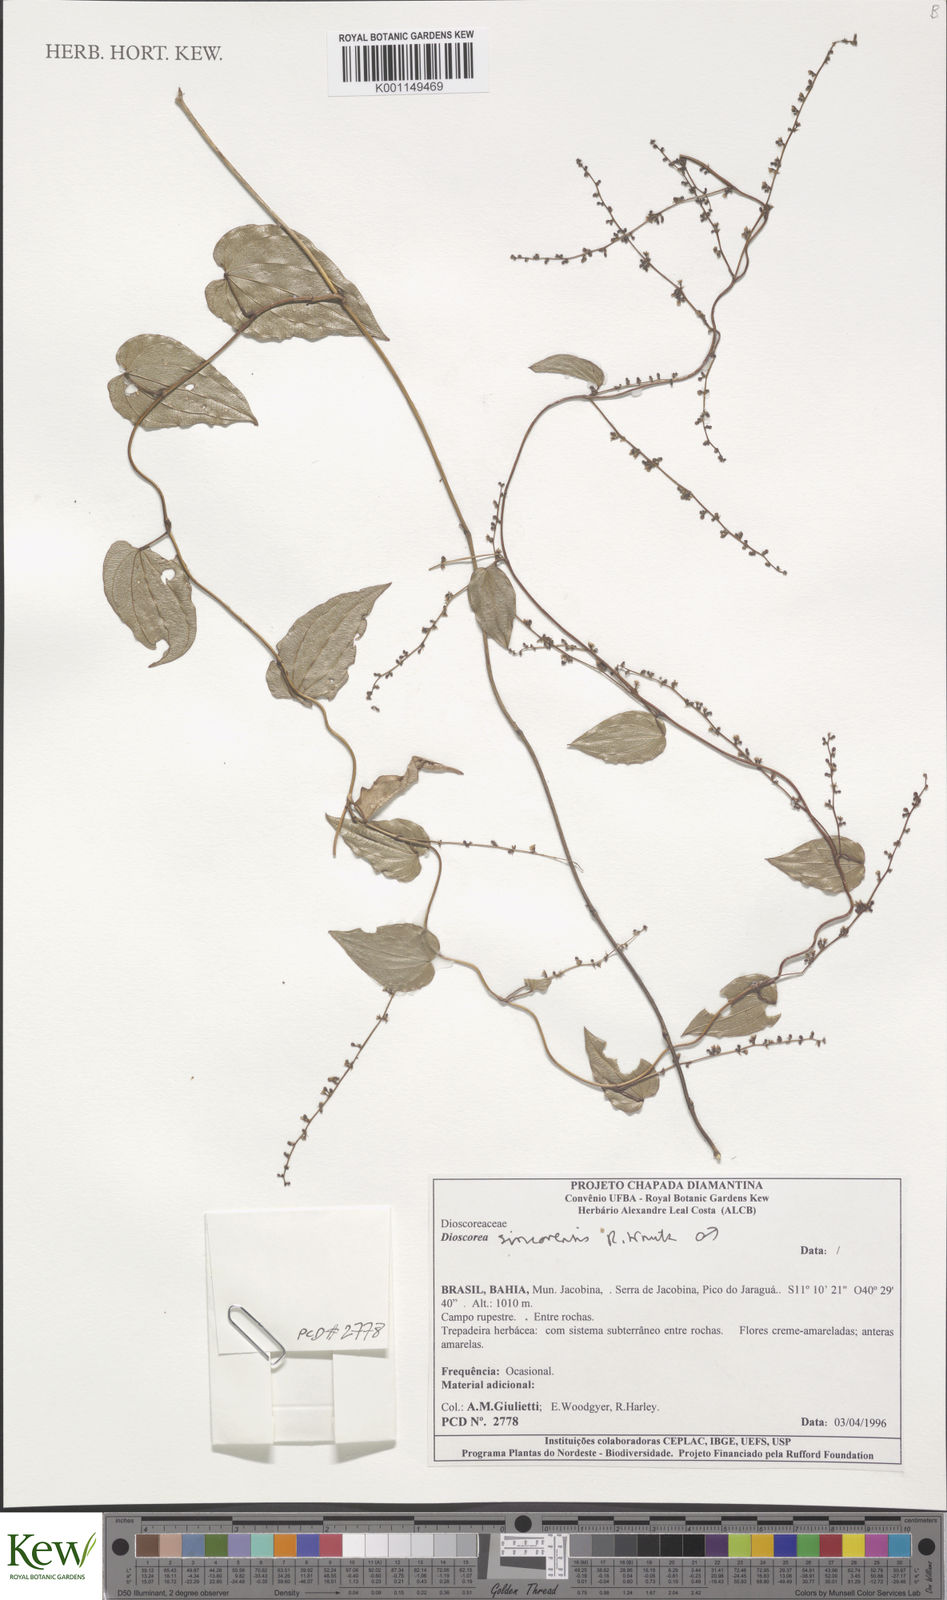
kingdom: Plantae
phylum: Tracheophyta
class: Liliopsida
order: Dioscoreales
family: Dioscoreaceae
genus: Dioscorea
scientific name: Dioscorea sincorensis
